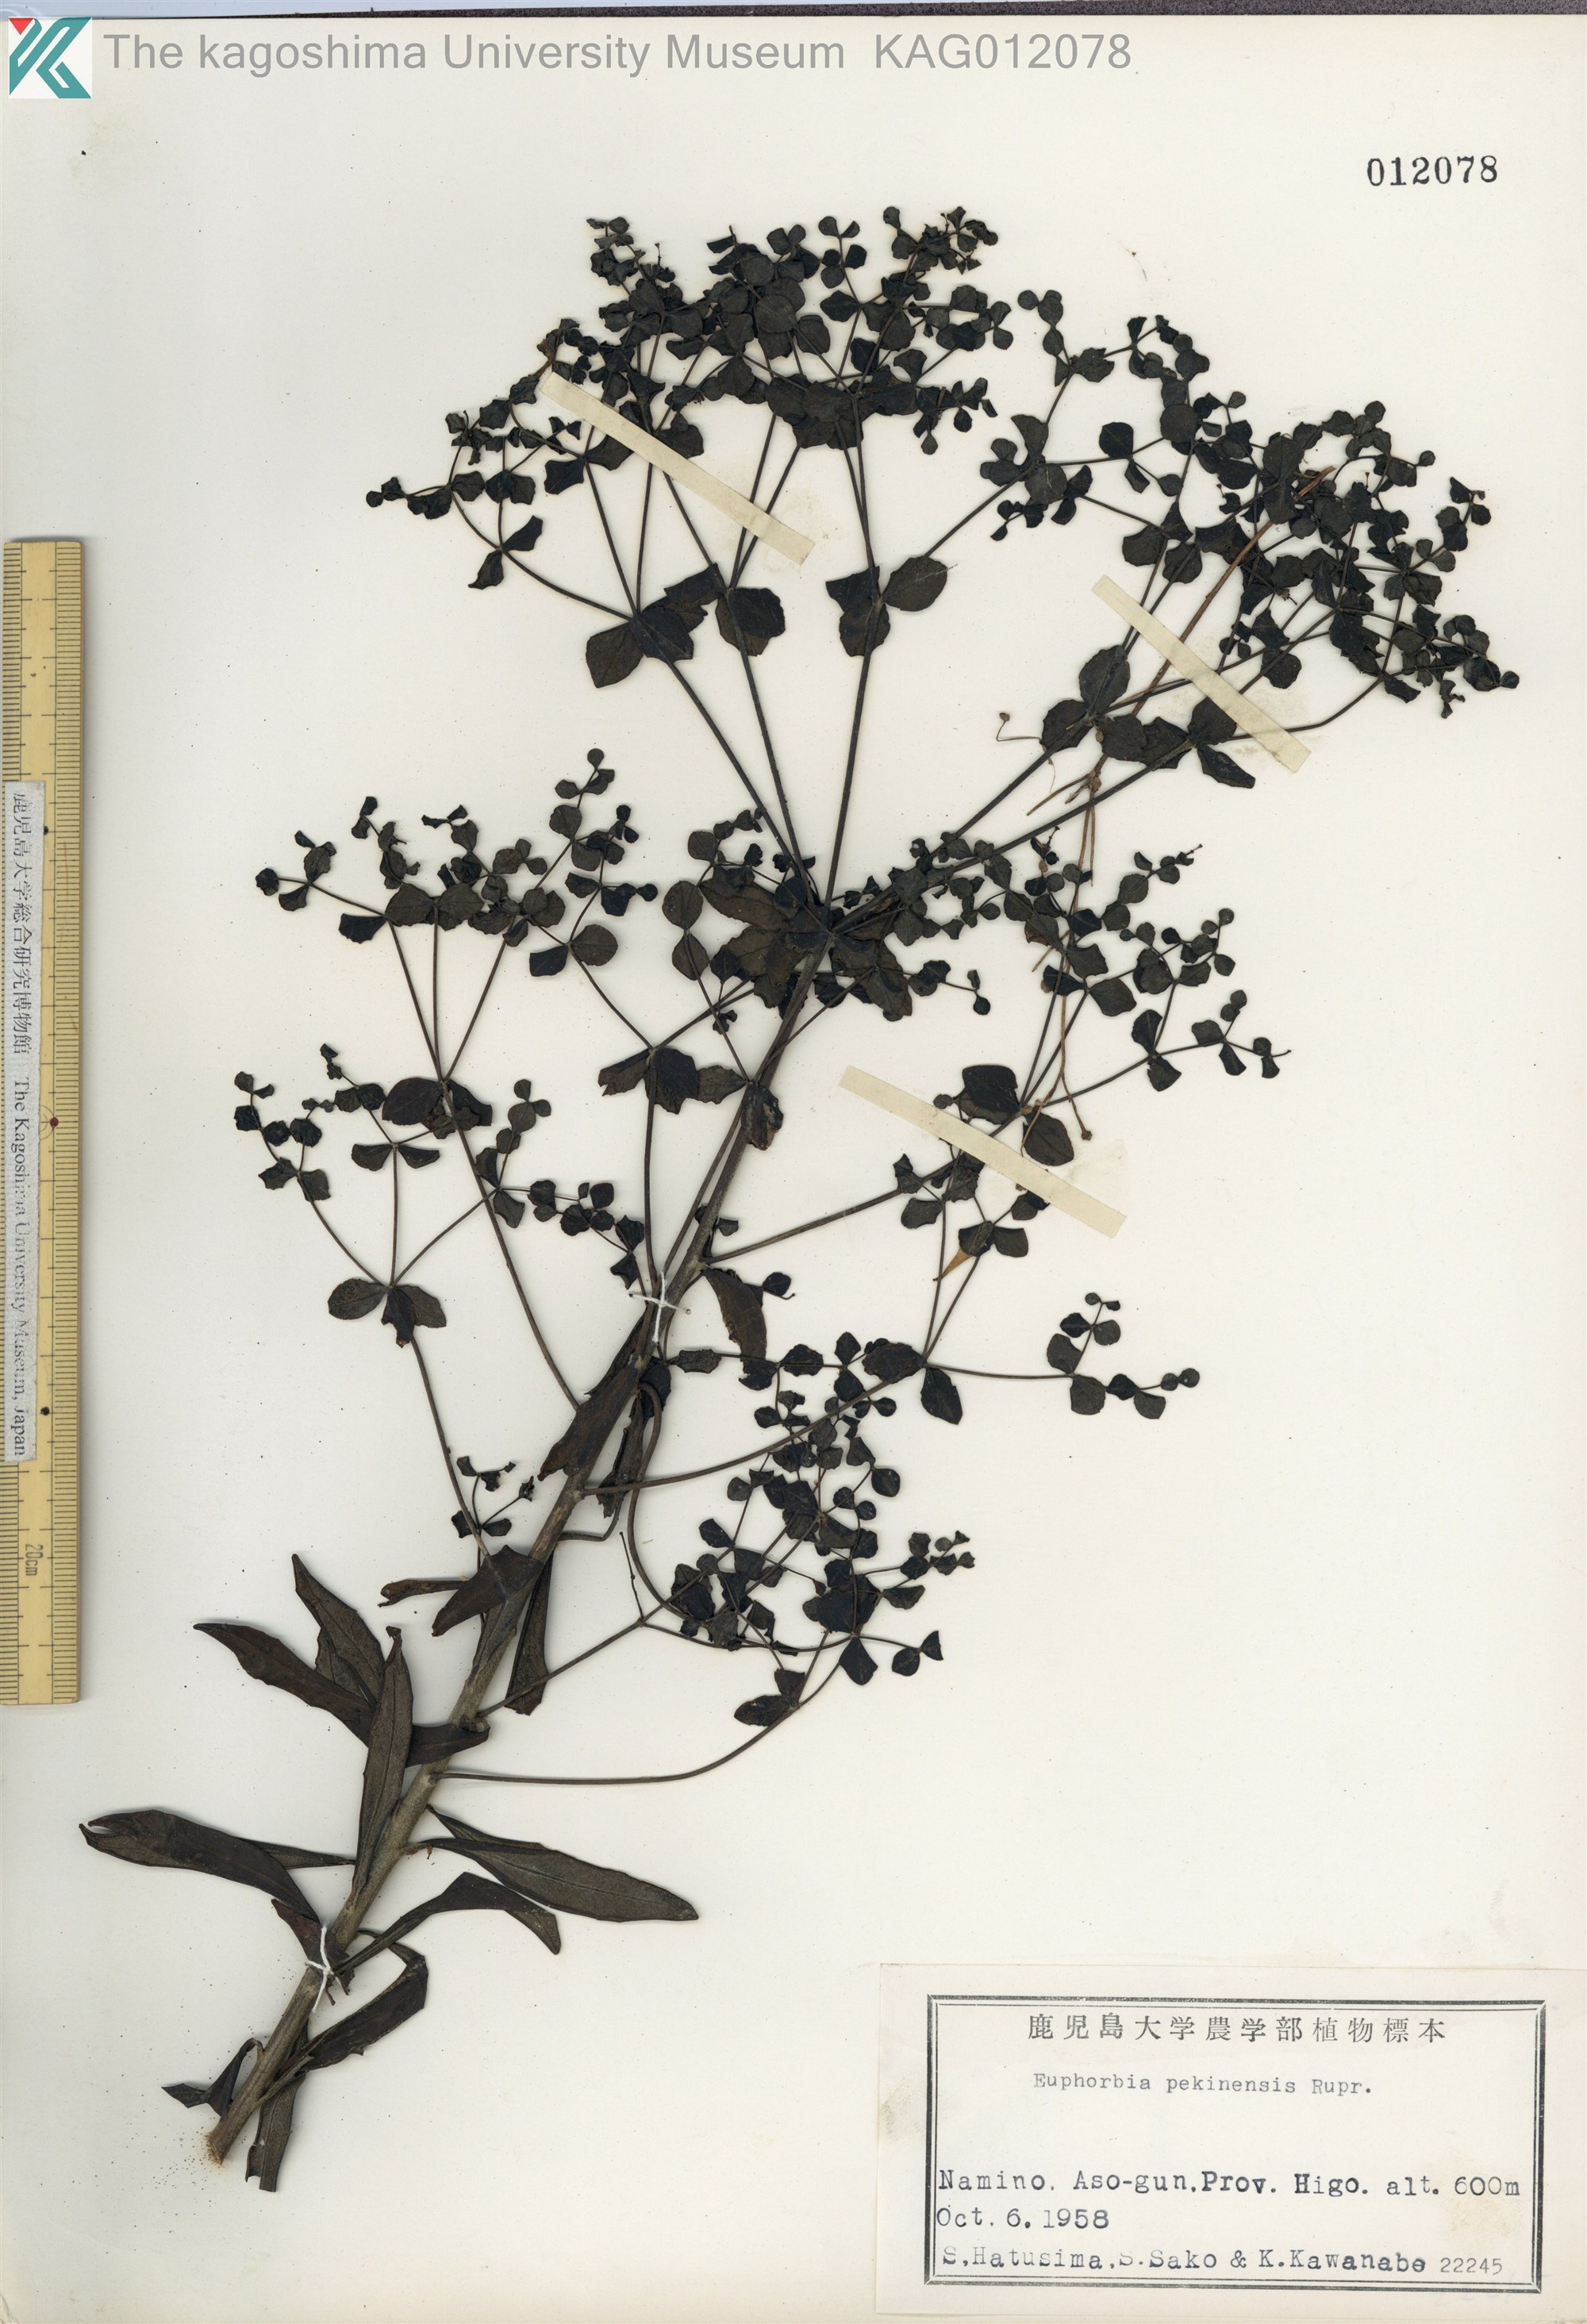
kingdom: Plantae
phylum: Tracheophyta
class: Magnoliopsida
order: Malpighiales
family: Euphorbiaceae
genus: Euphorbia
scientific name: Euphorbia pekinensis
